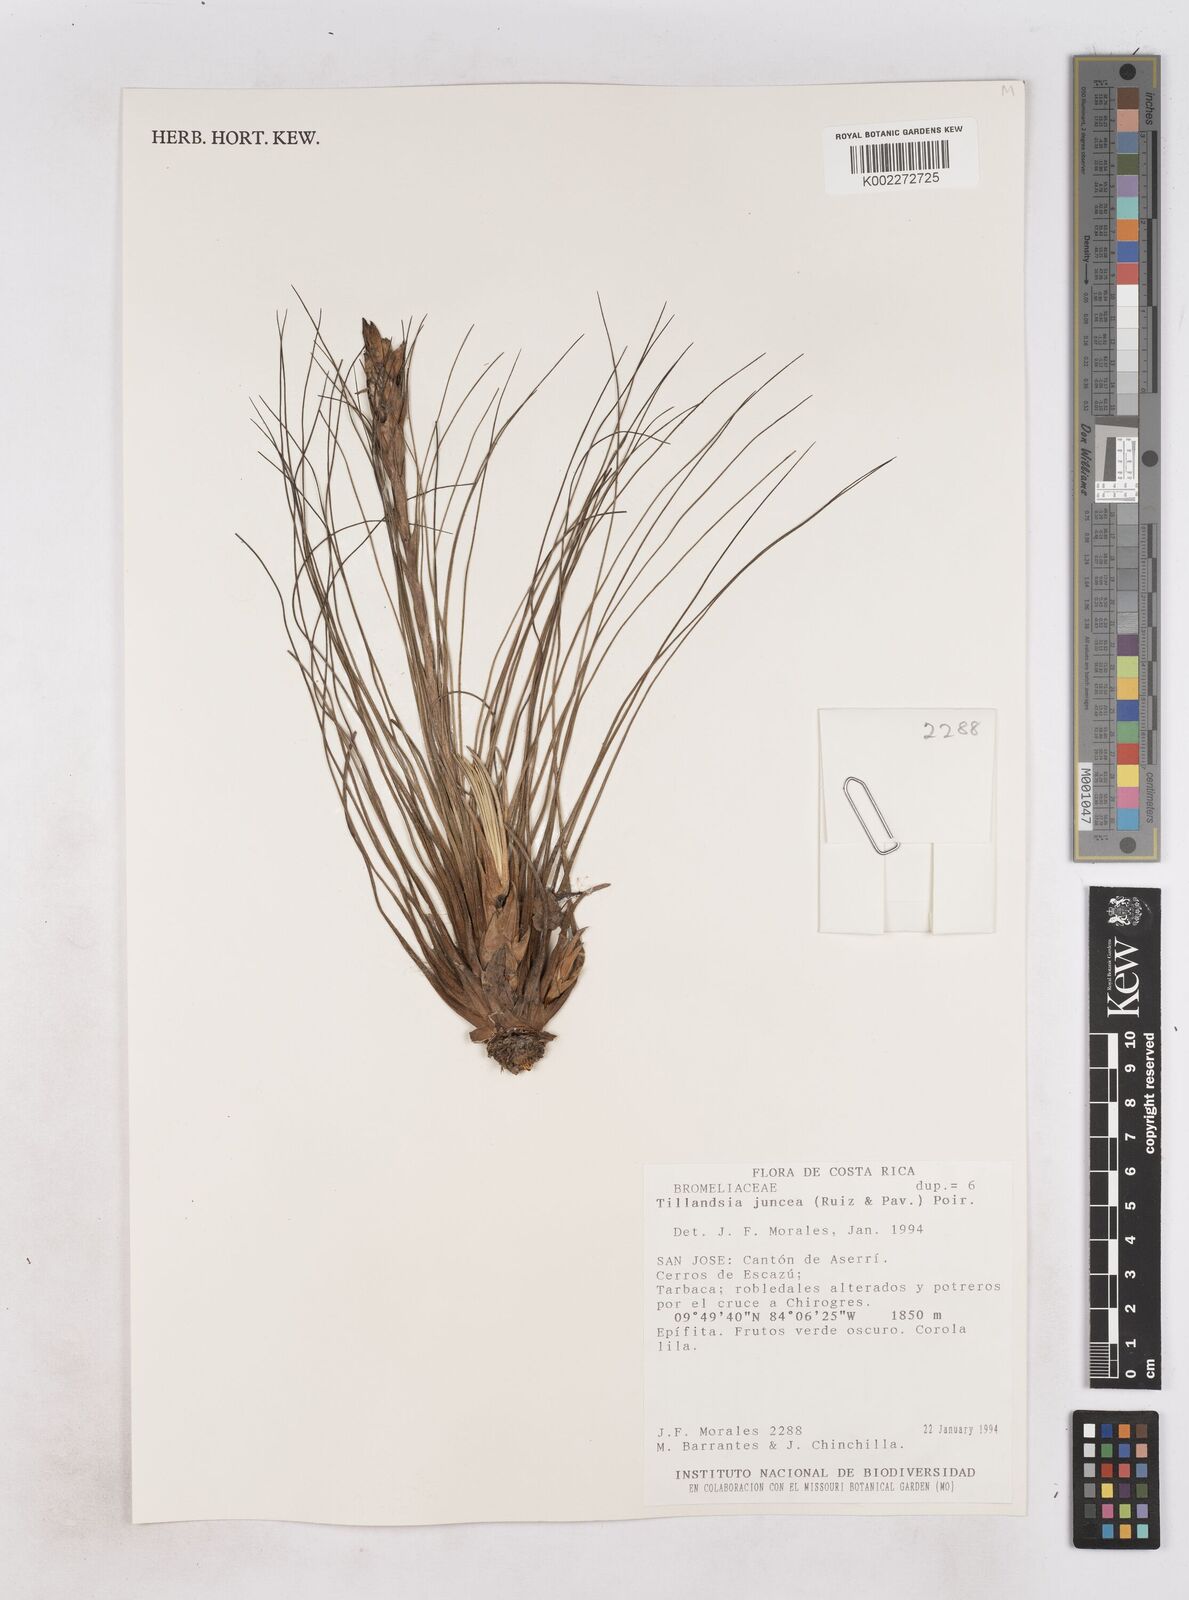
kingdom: Plantae
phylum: Tracheophyta
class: Liliopsida
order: Poales
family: Bromeliaceae
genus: Tillandsia
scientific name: Tillandsia juncea
